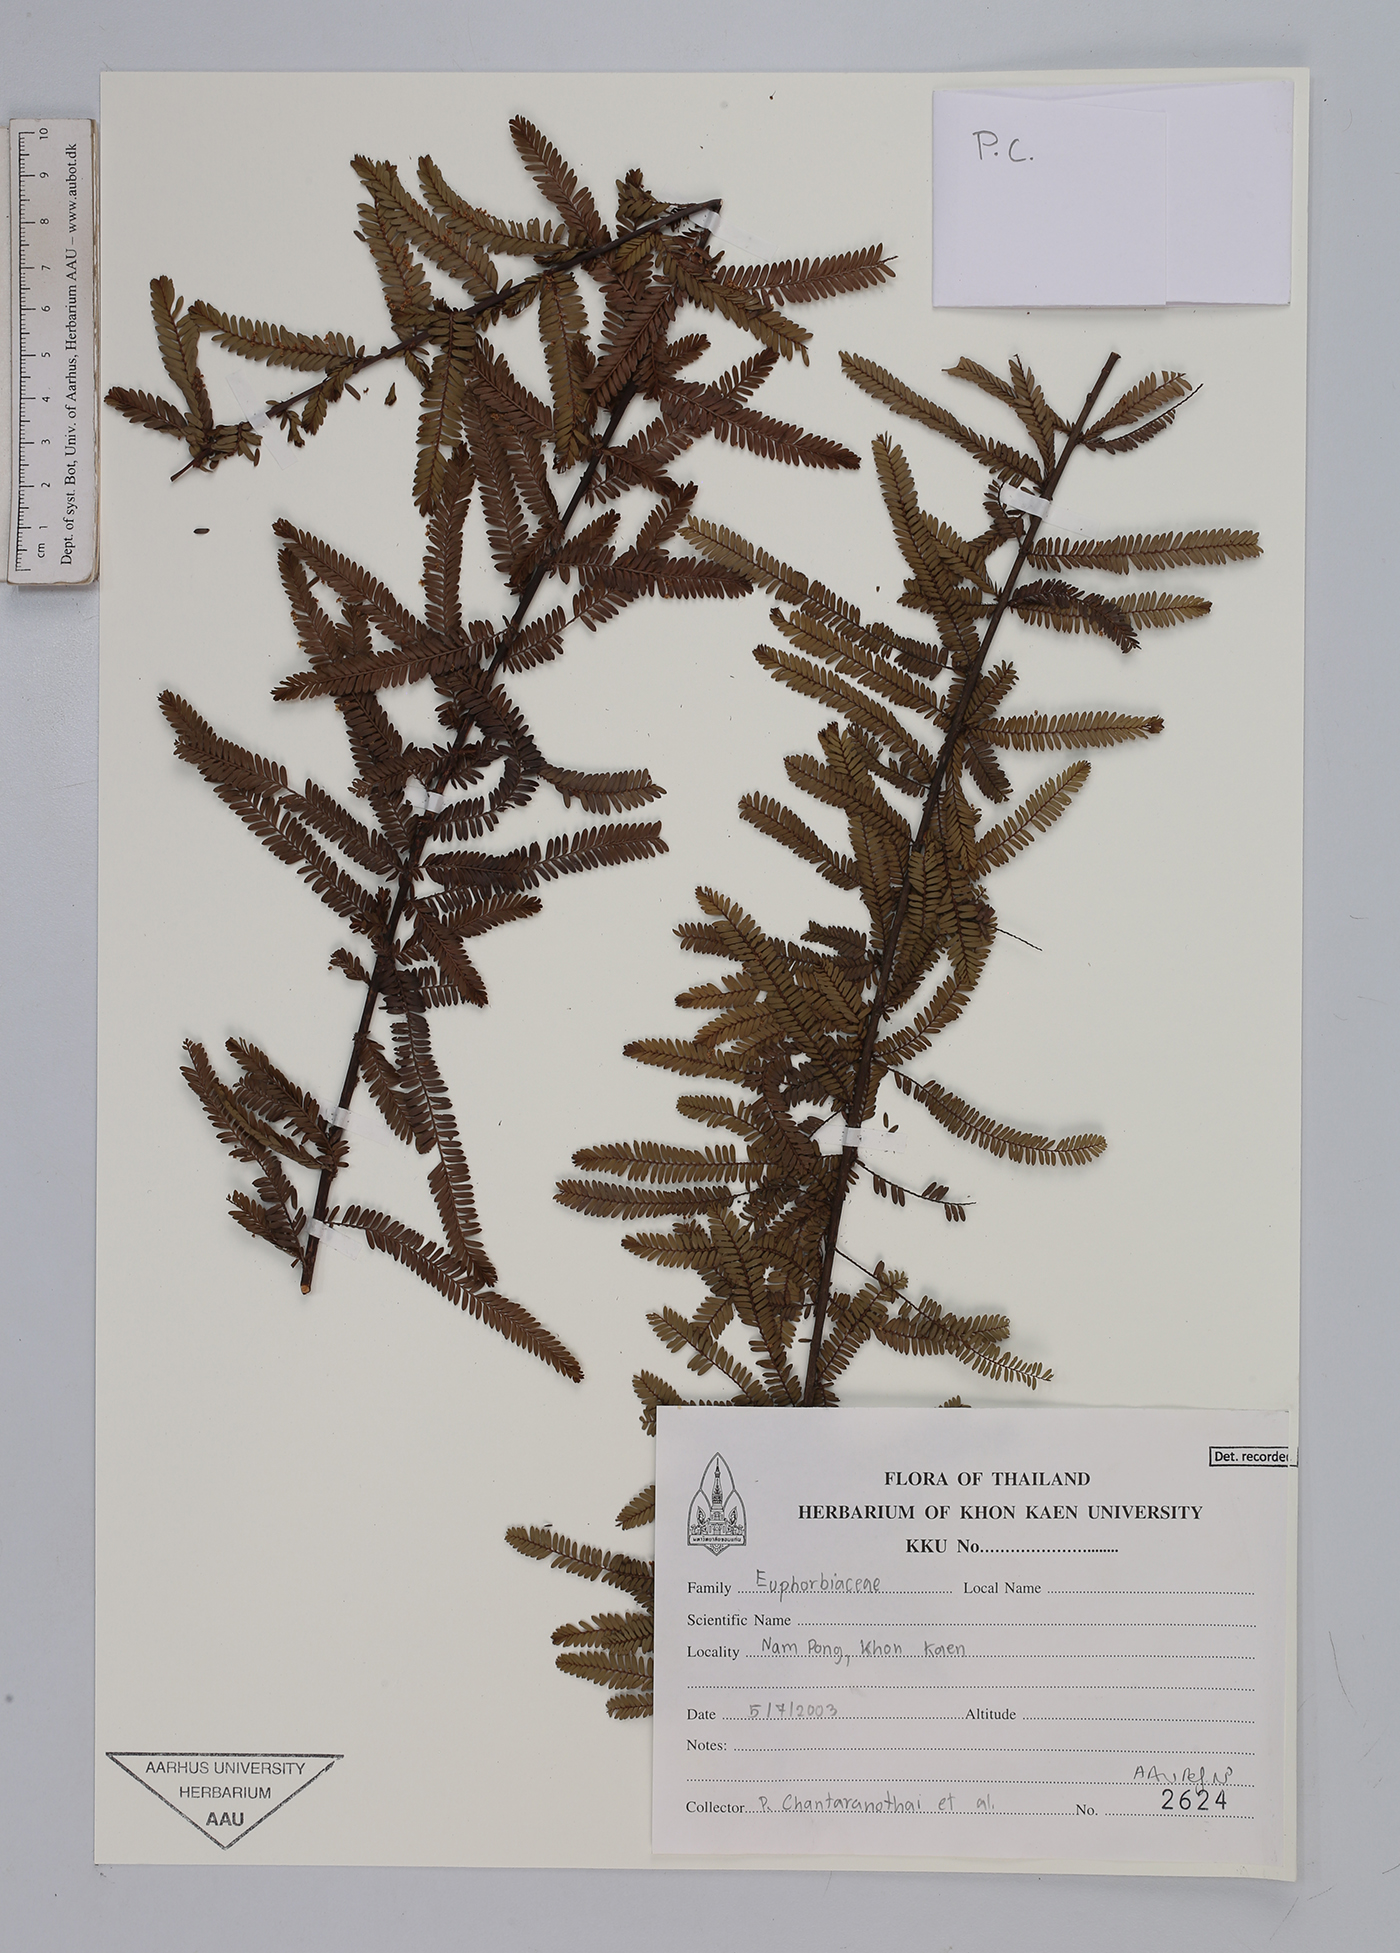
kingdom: Plantae
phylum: Tracheophyta
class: Magnoliopsida
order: Malpighiales
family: Euphorbiaceae
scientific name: Euphorbiaceae
